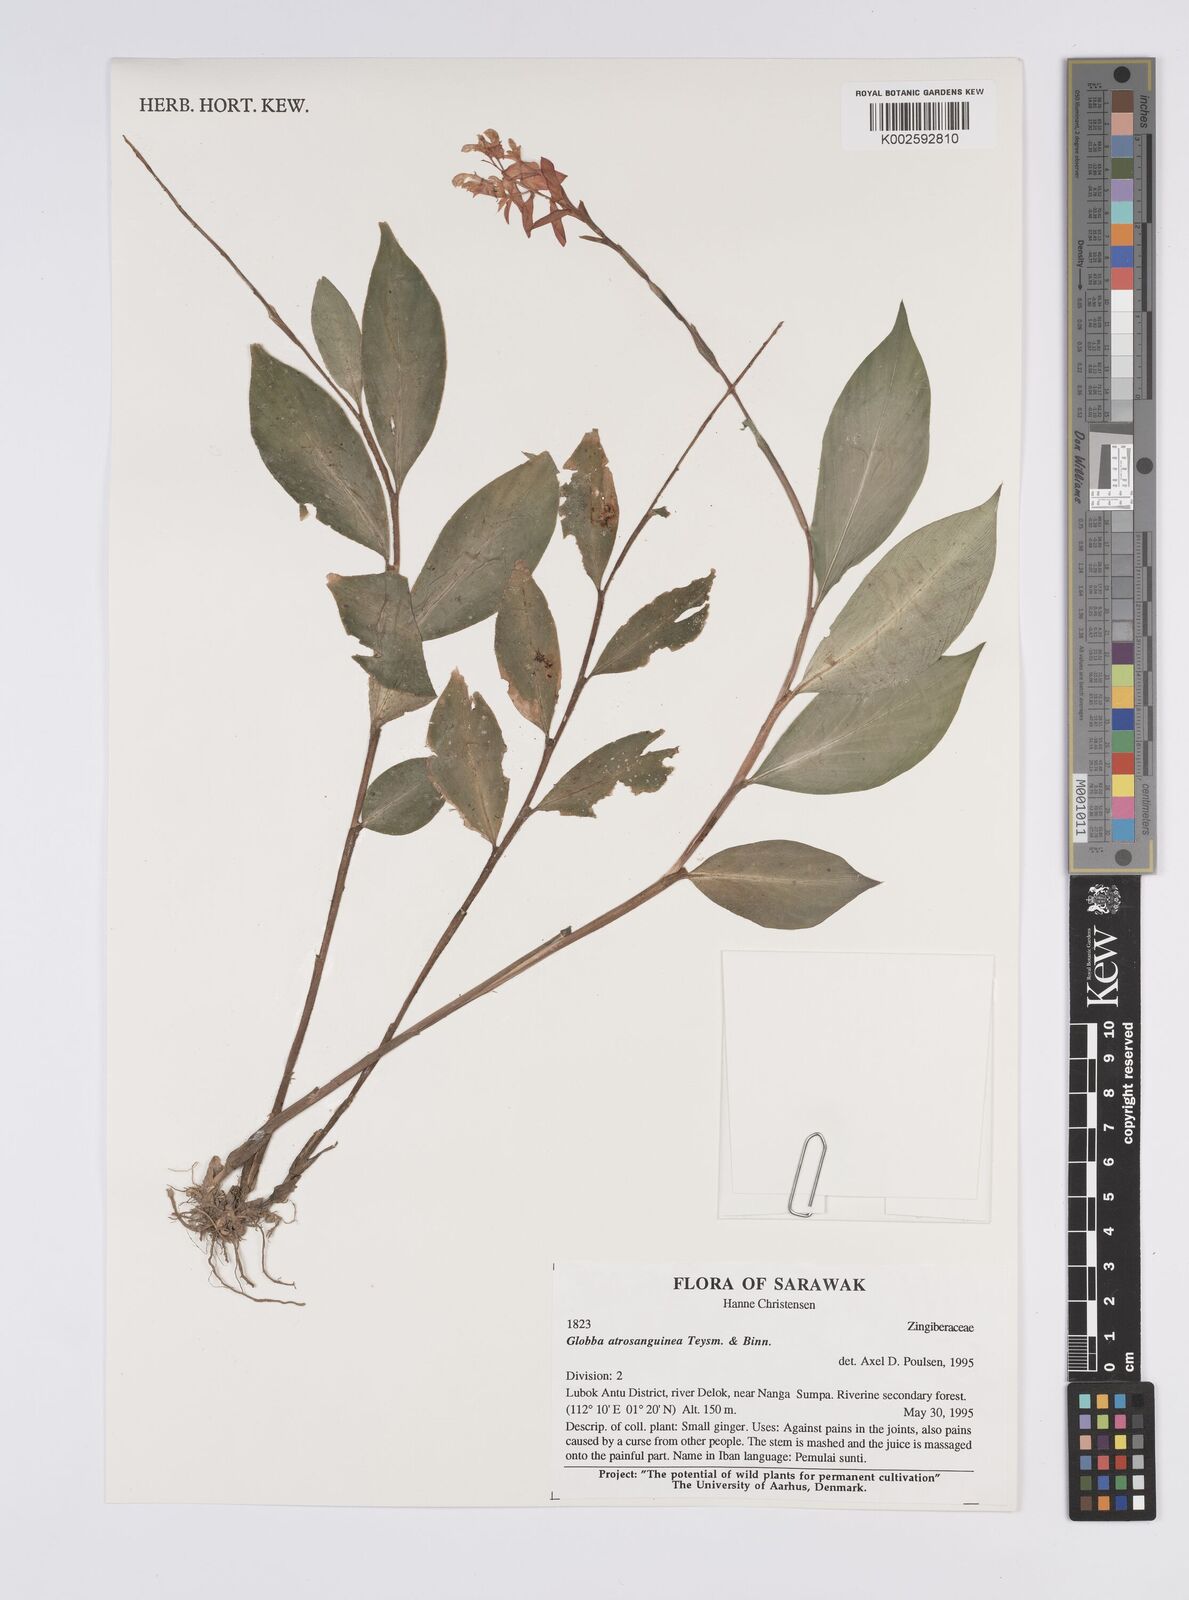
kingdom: Plantae
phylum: Tracheophyta
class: Liliopsida
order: Zingiberales
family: Zingiberaceae
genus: Globba
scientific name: Globba atrosanguinea
